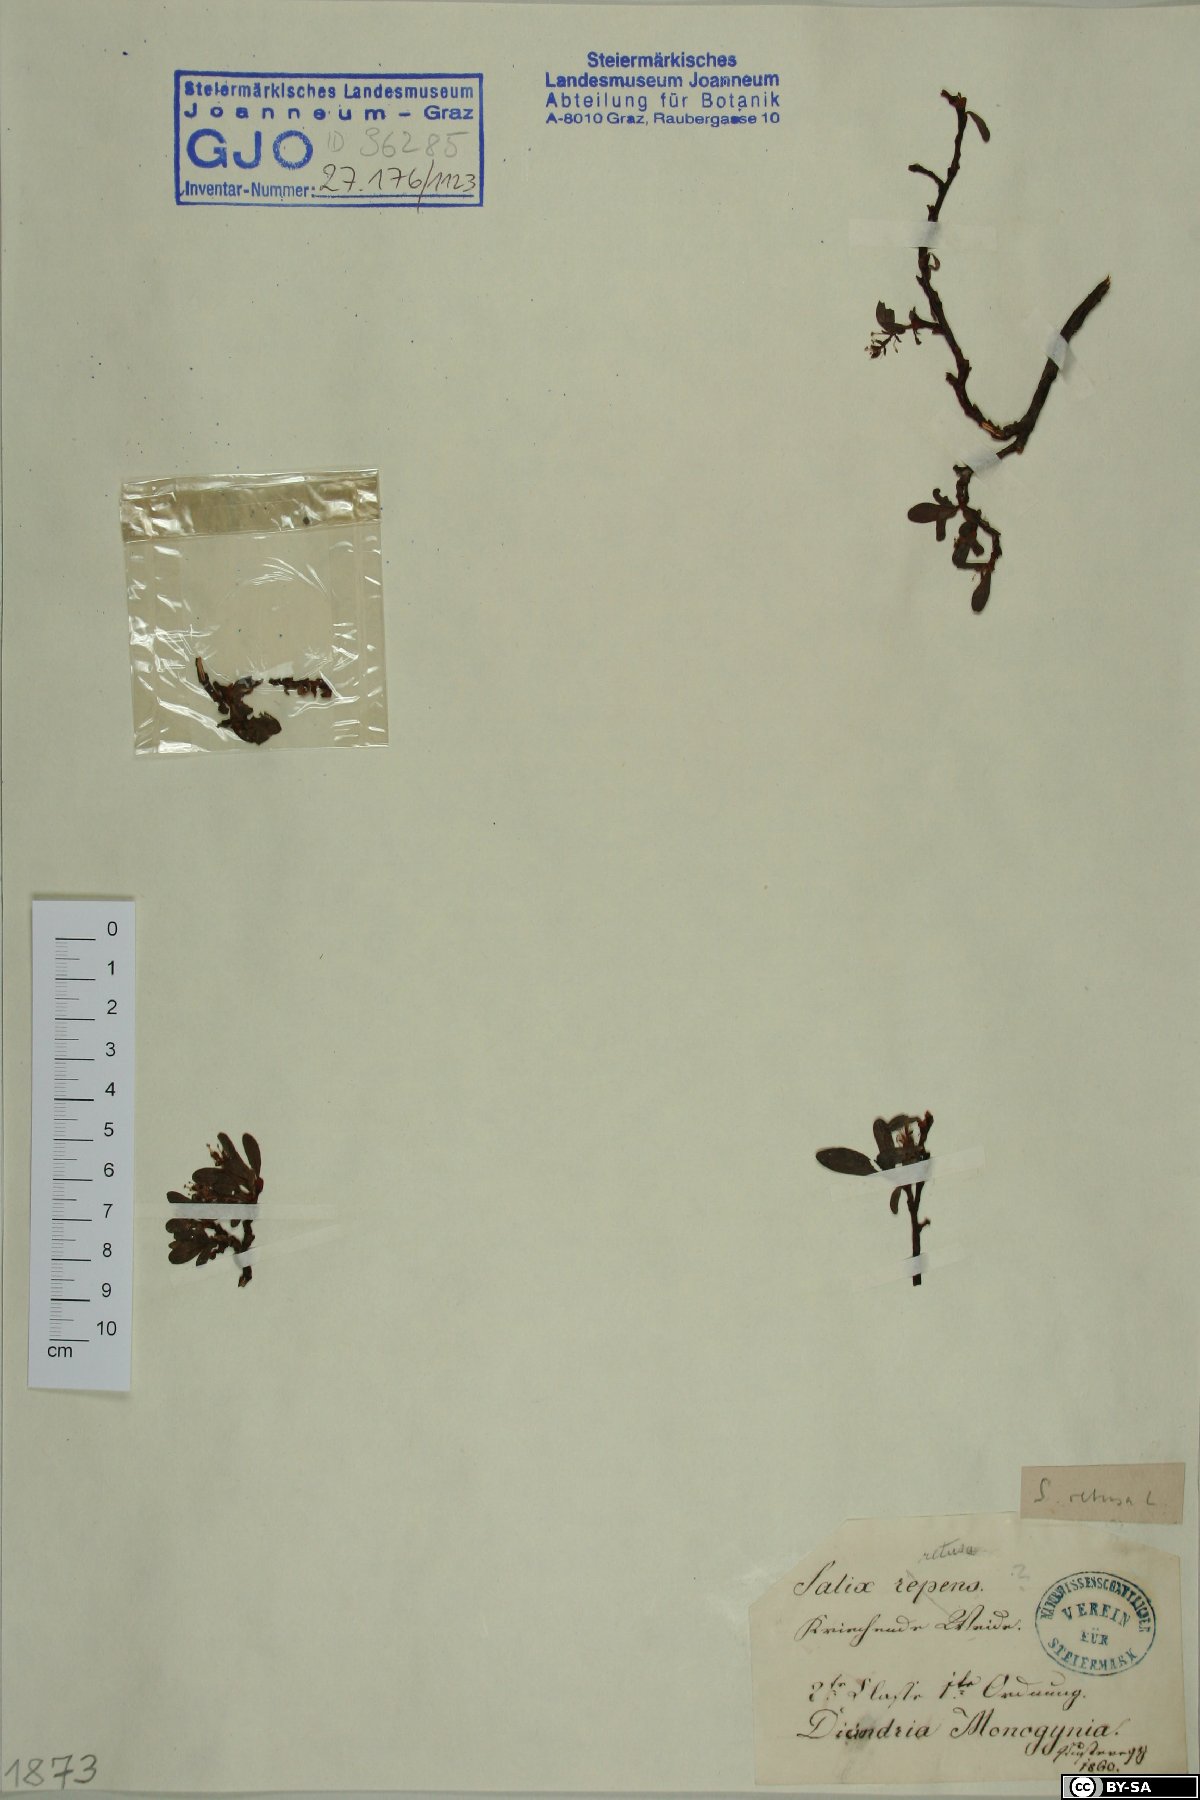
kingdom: Plantae
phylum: Tracheophyta
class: Magnoliopsida
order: Malpighiales
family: Salicaceae
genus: Salix
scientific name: Salix retusa
